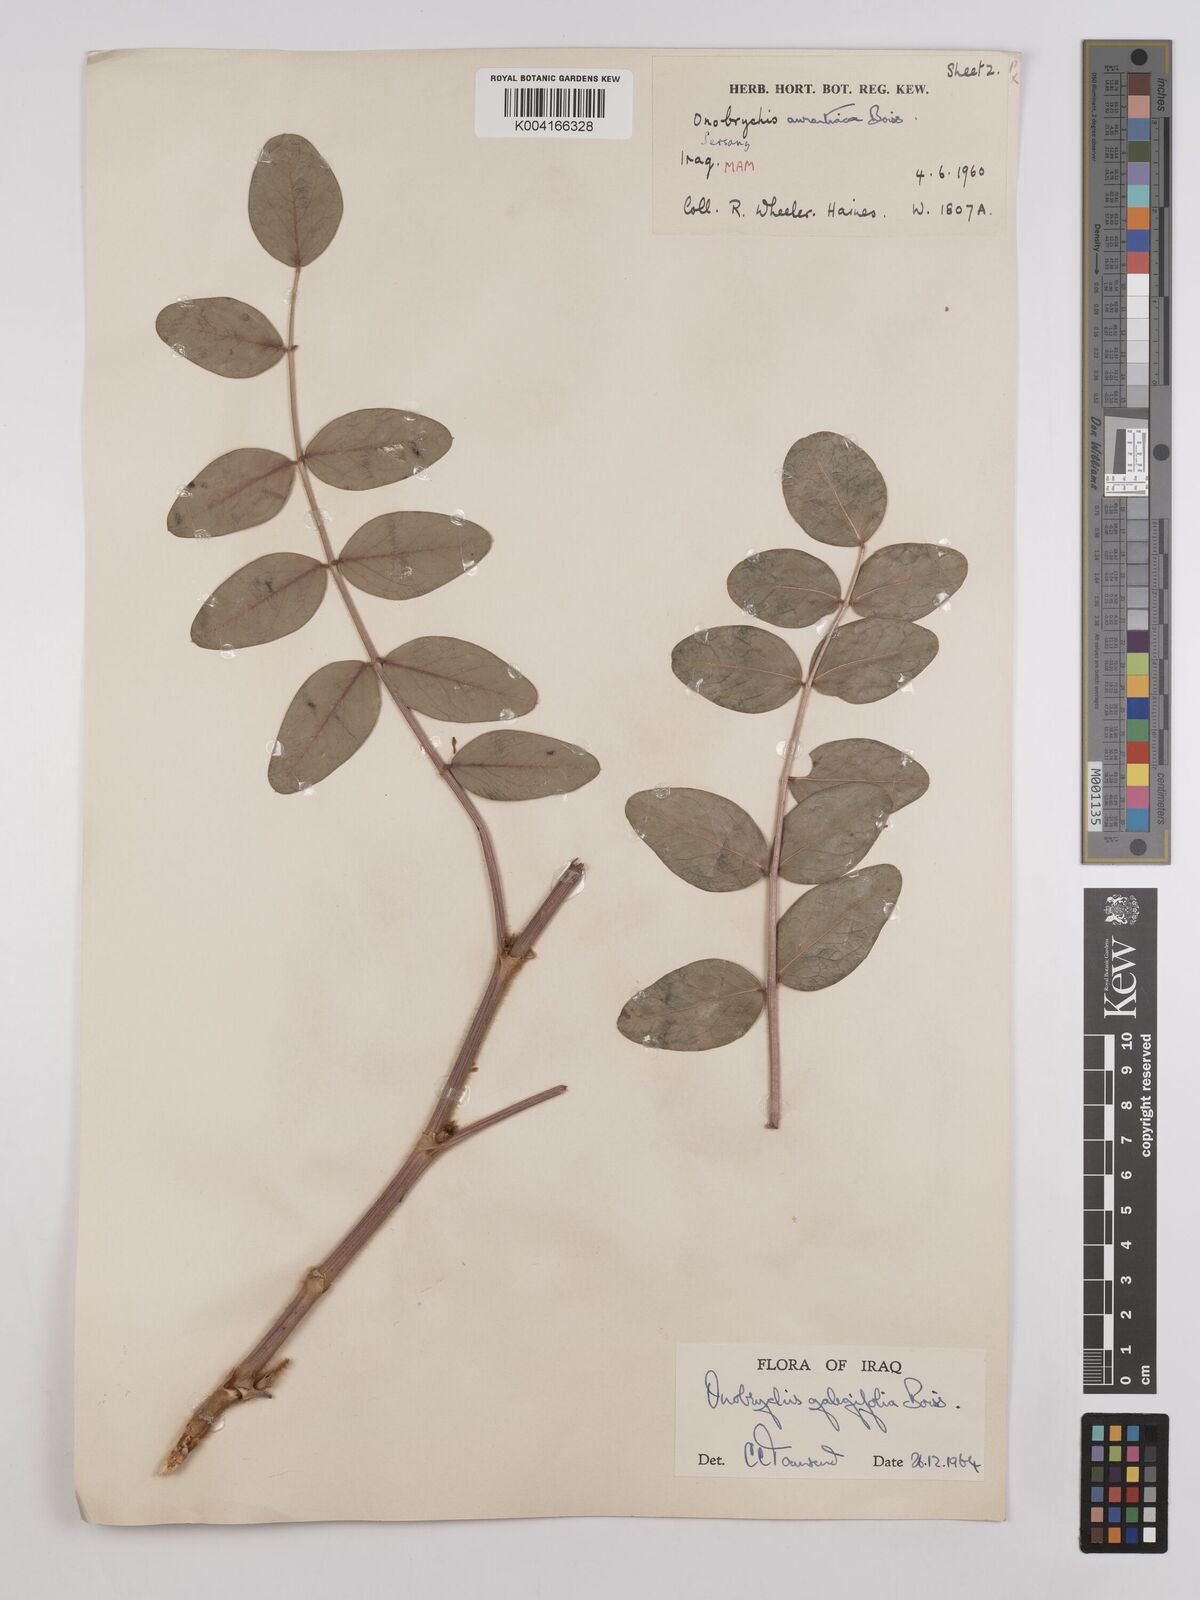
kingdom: Plantae
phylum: Tracheophyta
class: Magnoliopsida
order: Fabales
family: Fabaceae
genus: Onobrychis
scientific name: Onobrychis galegifolia
